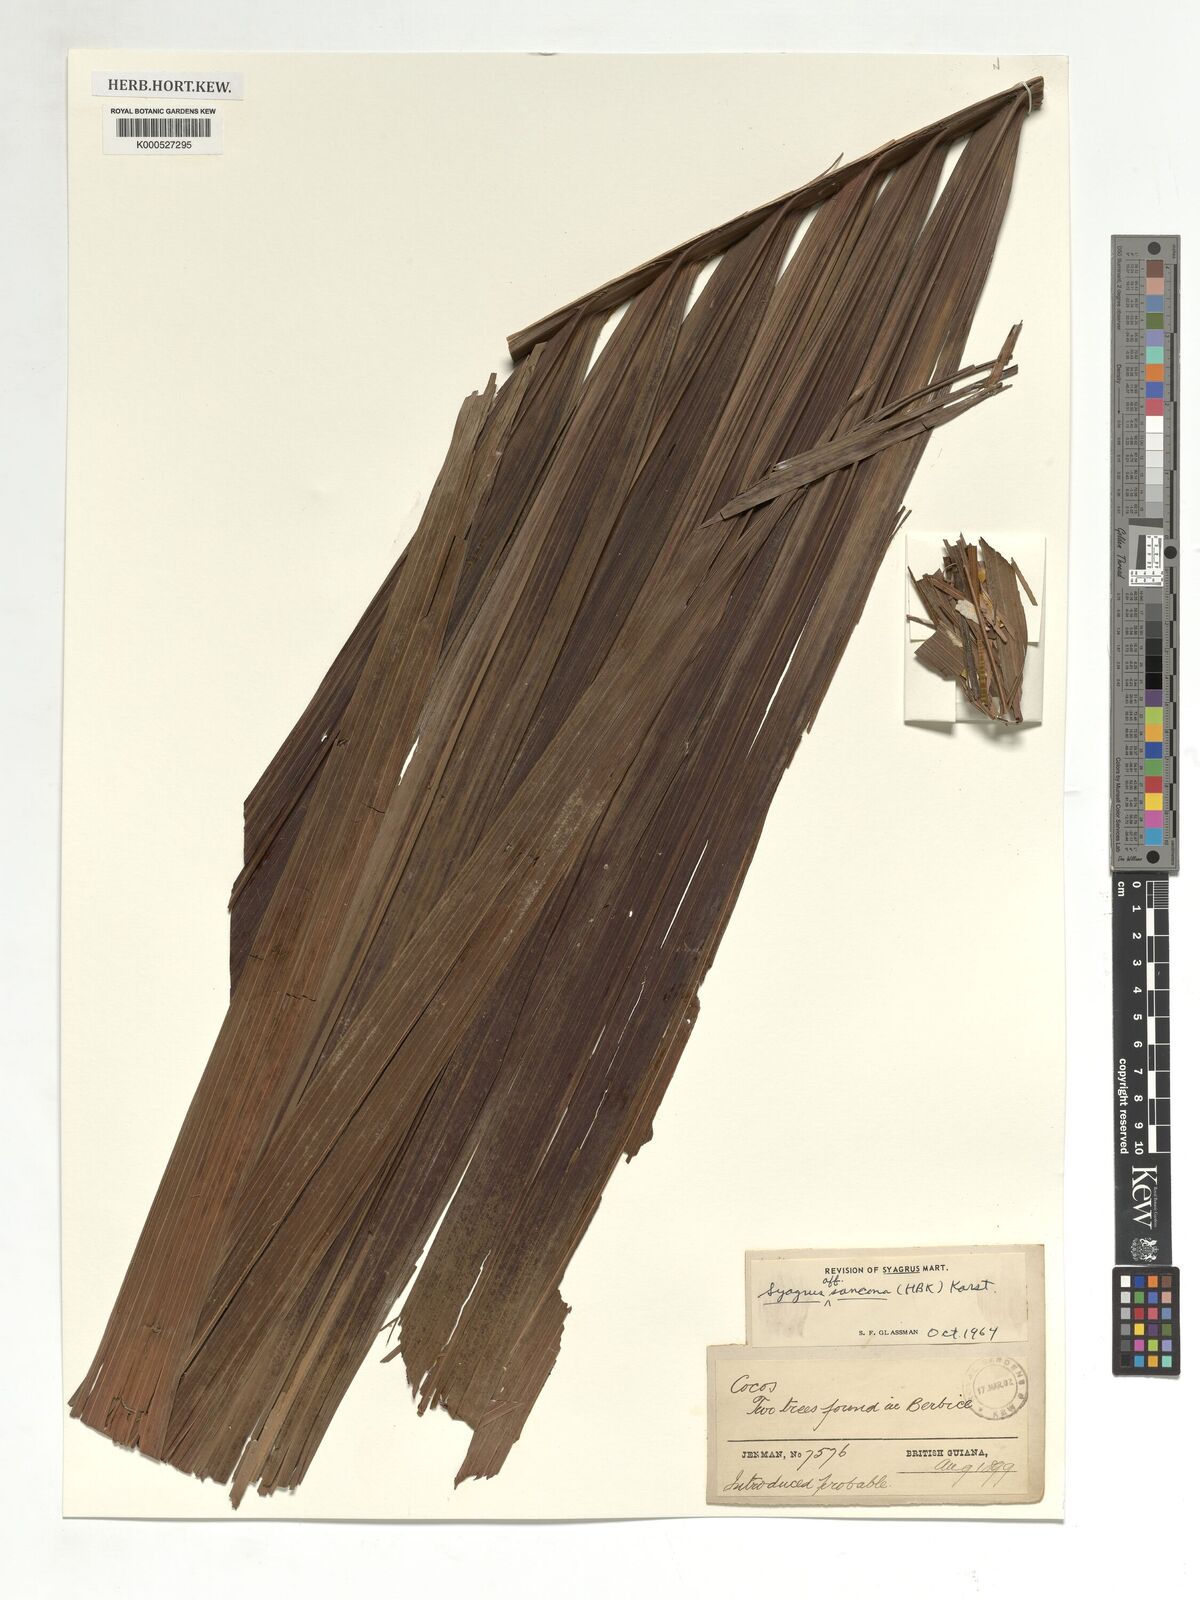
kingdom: Plantae
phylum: Tracheophyta
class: Liliopsida
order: Arecales
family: Arecaceae
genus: Syagrus
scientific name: Syagrus sancona
